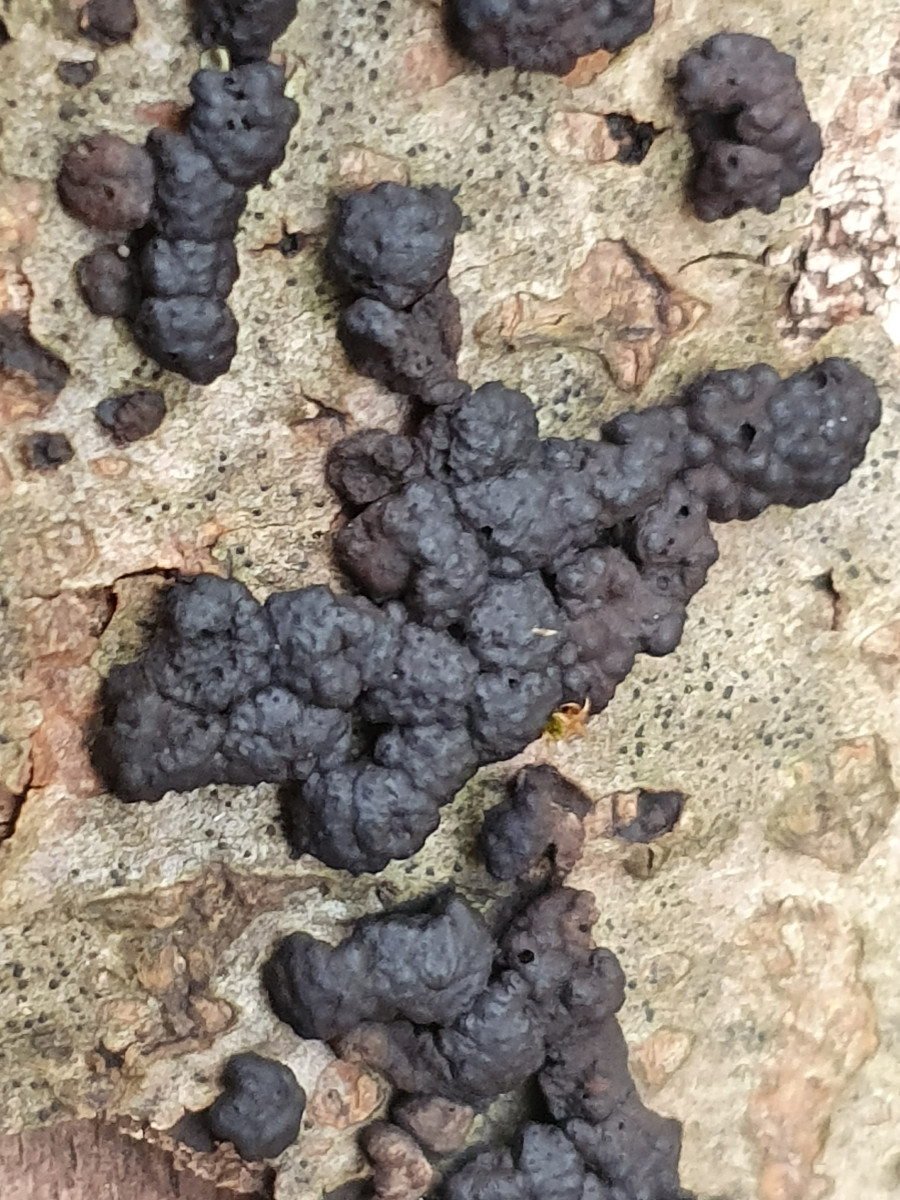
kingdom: Fungi
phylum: Ascomycota
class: Sordariomycetes
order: Xylariales
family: Hypoxylaceae
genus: Jackrogersella
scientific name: Jackrogersella cohaerens
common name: sammenflydende kulbær
